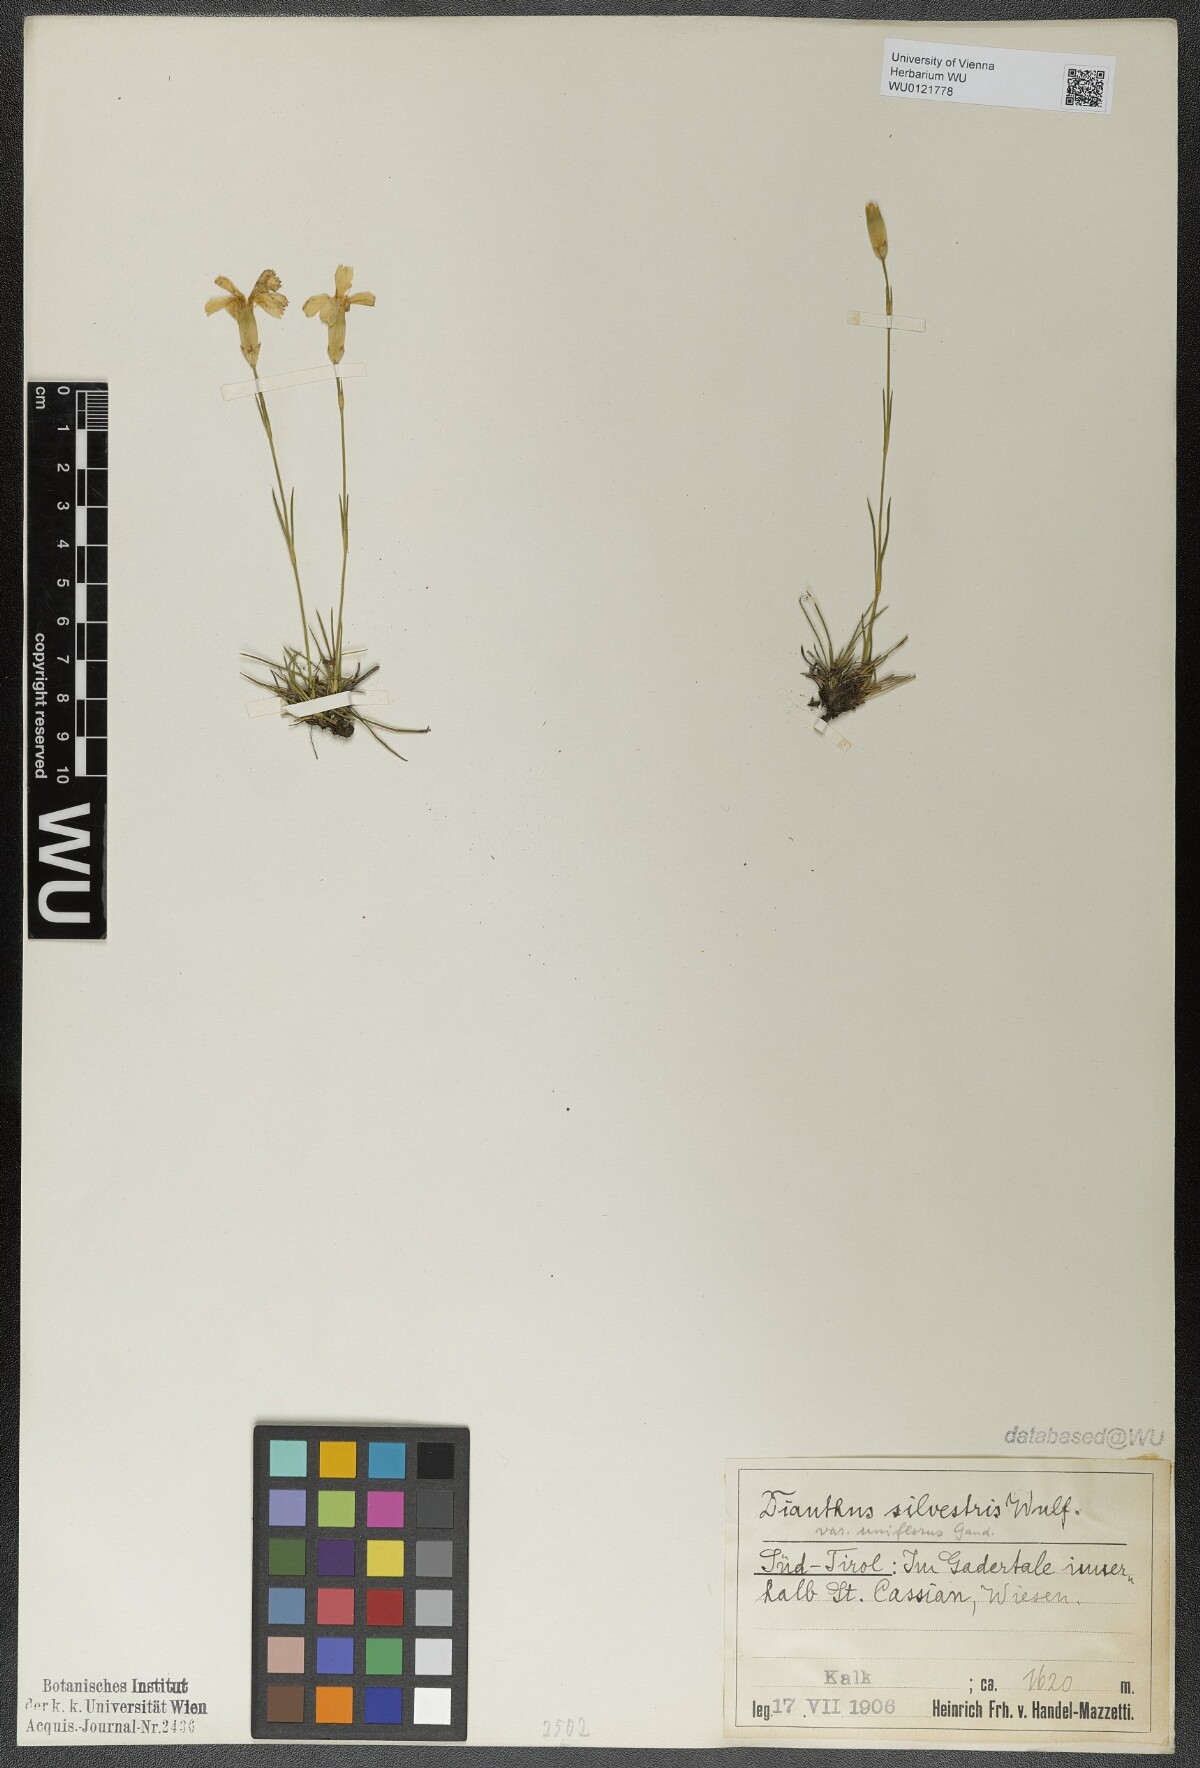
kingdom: Plantae
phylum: Tracheophyta
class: Magnoliopsida
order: Caryophyllales
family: Caryophyllaceae
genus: Dianthus
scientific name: Dianthus sylvestris
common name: Wood pink
